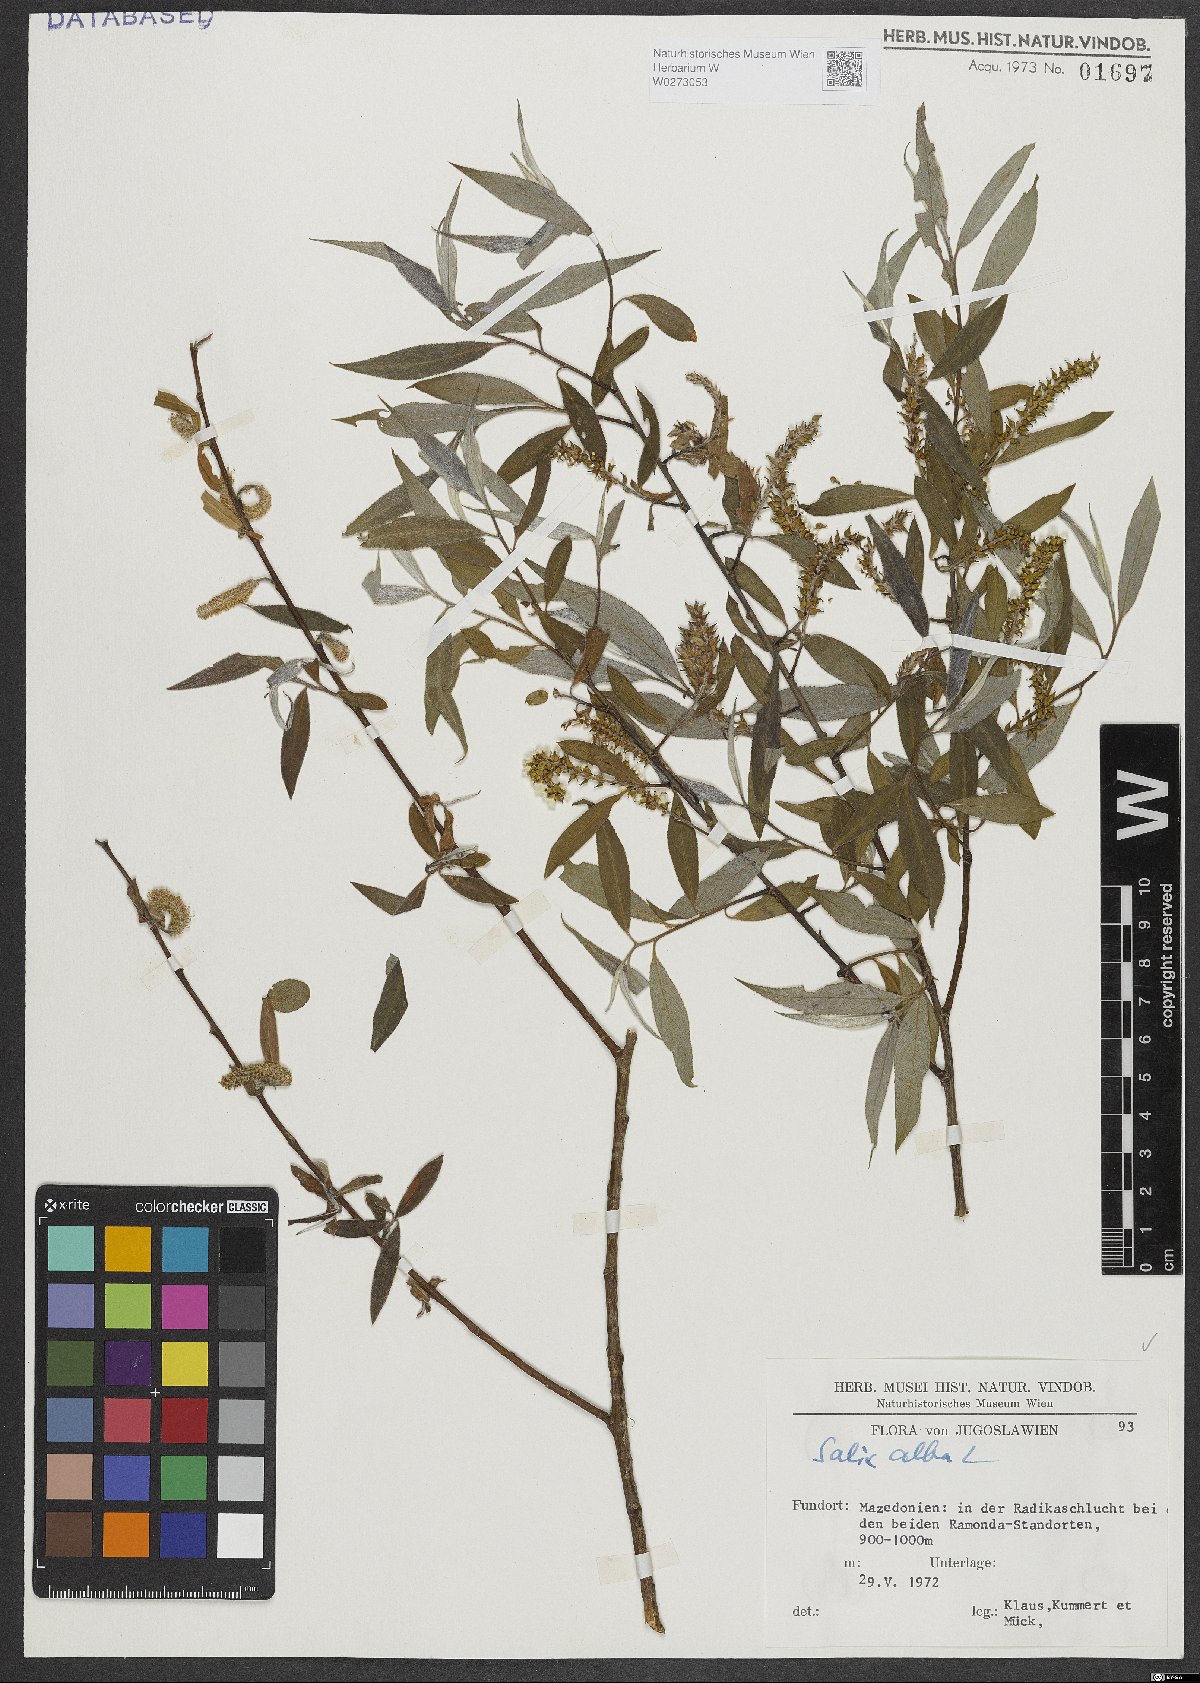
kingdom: Plantae
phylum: Tracheophyta
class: Magnoliopsida
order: Malpighiales
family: Salicaceae
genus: Salix
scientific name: Salix alba
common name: White willow
